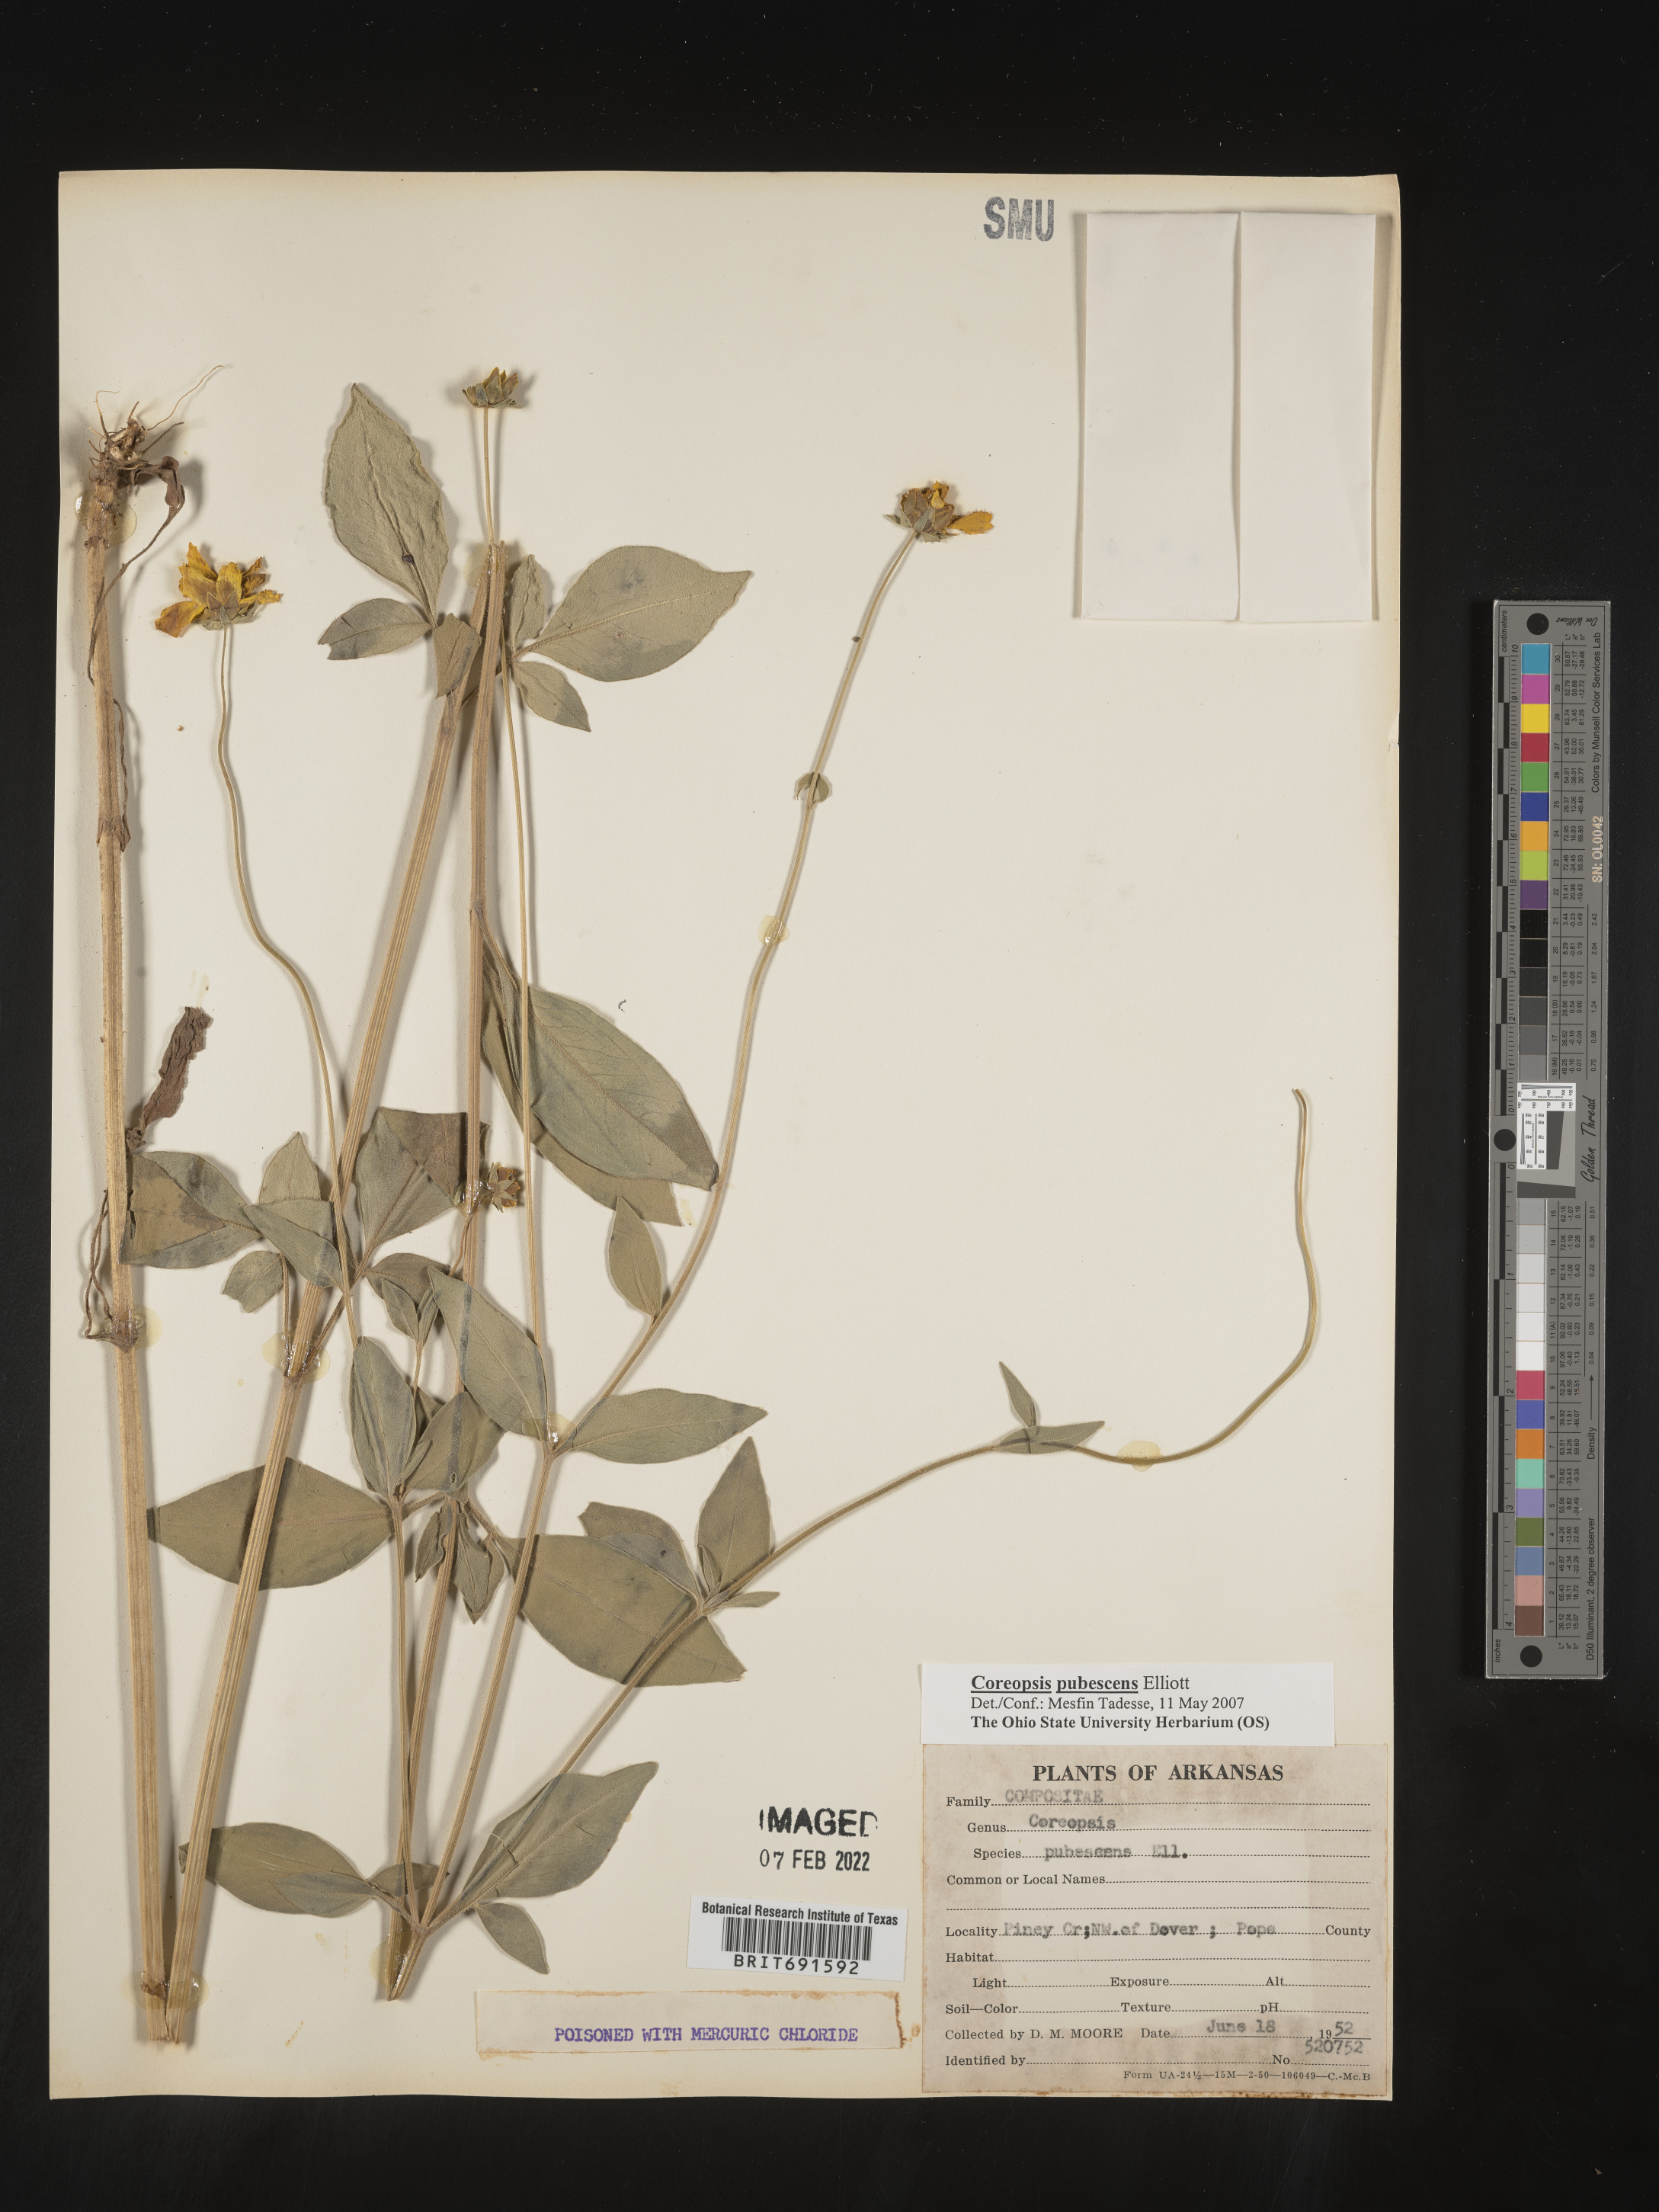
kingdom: Plantae
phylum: Tracheophyta
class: Magnoliopsida
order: Asterales
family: Asteraceae
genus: Coreopsis
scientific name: Coreopsis pubescens
